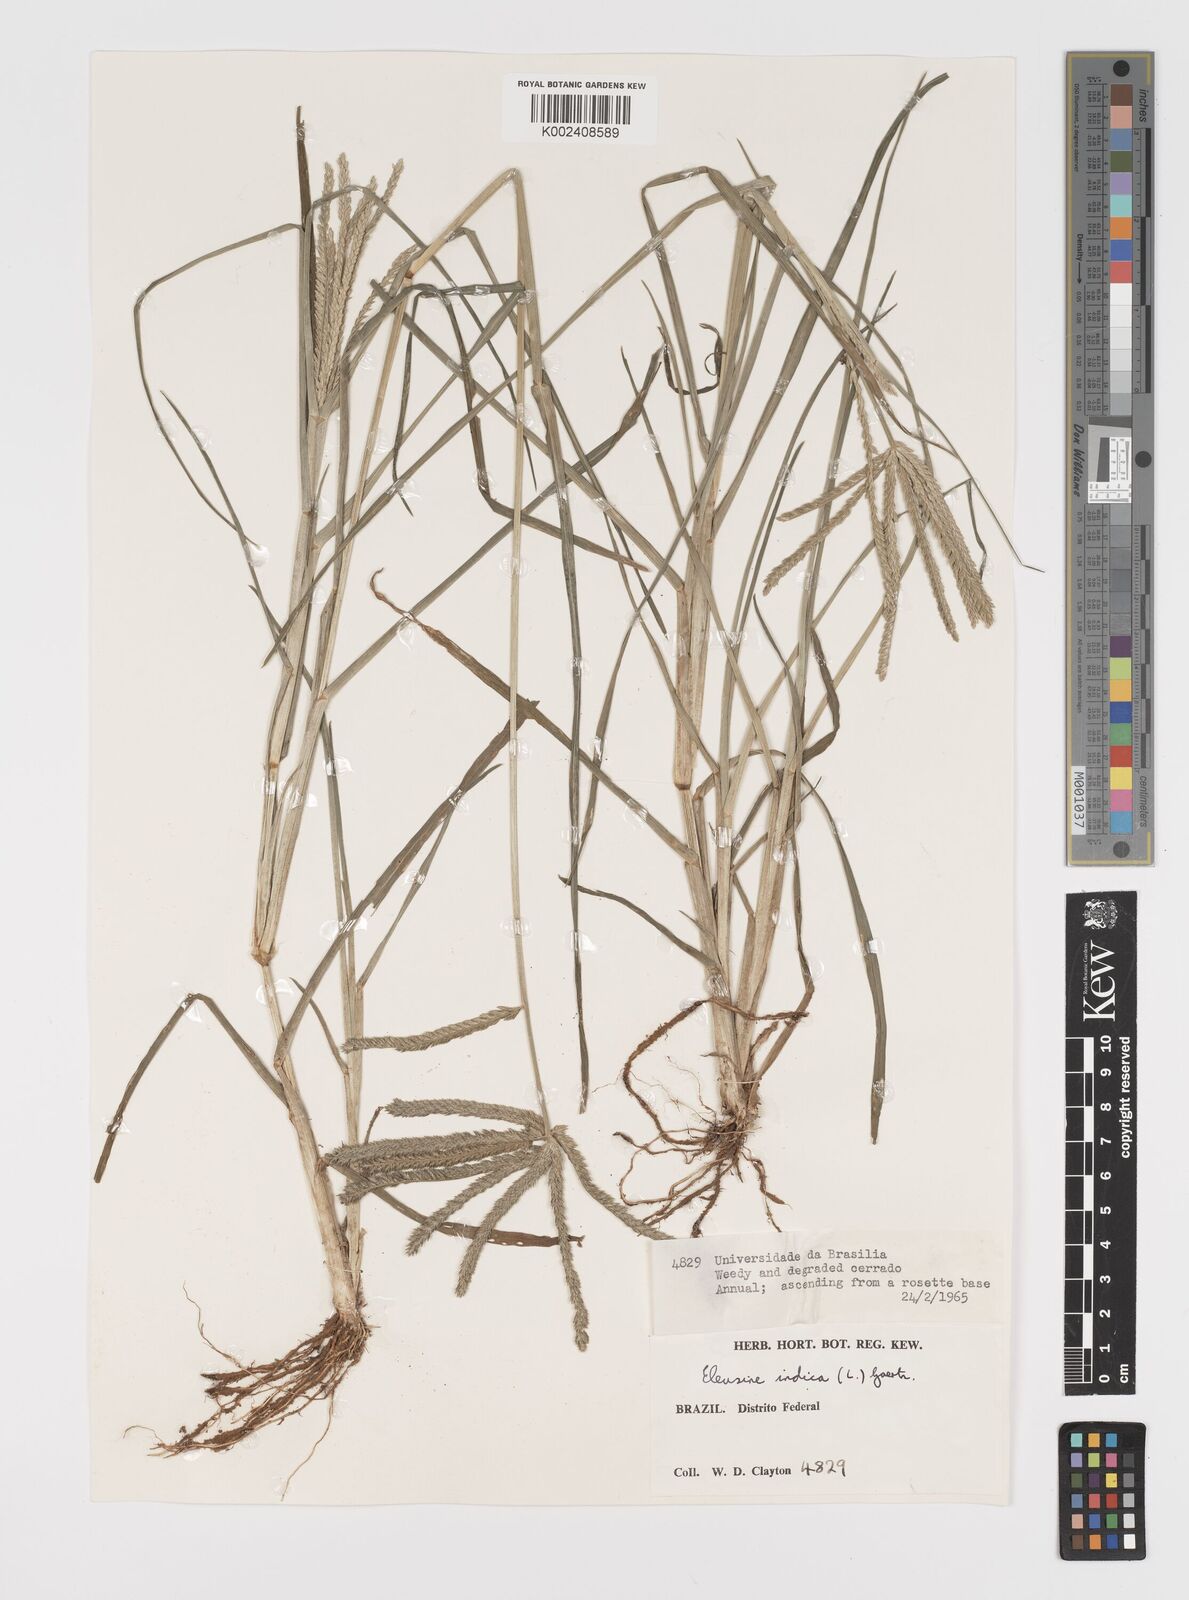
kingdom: Plantae
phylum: Tracheophyta
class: Liliopsida
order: Poales
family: Poaceae
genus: Eleusine
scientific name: Eleusine indica
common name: Yard-grass
